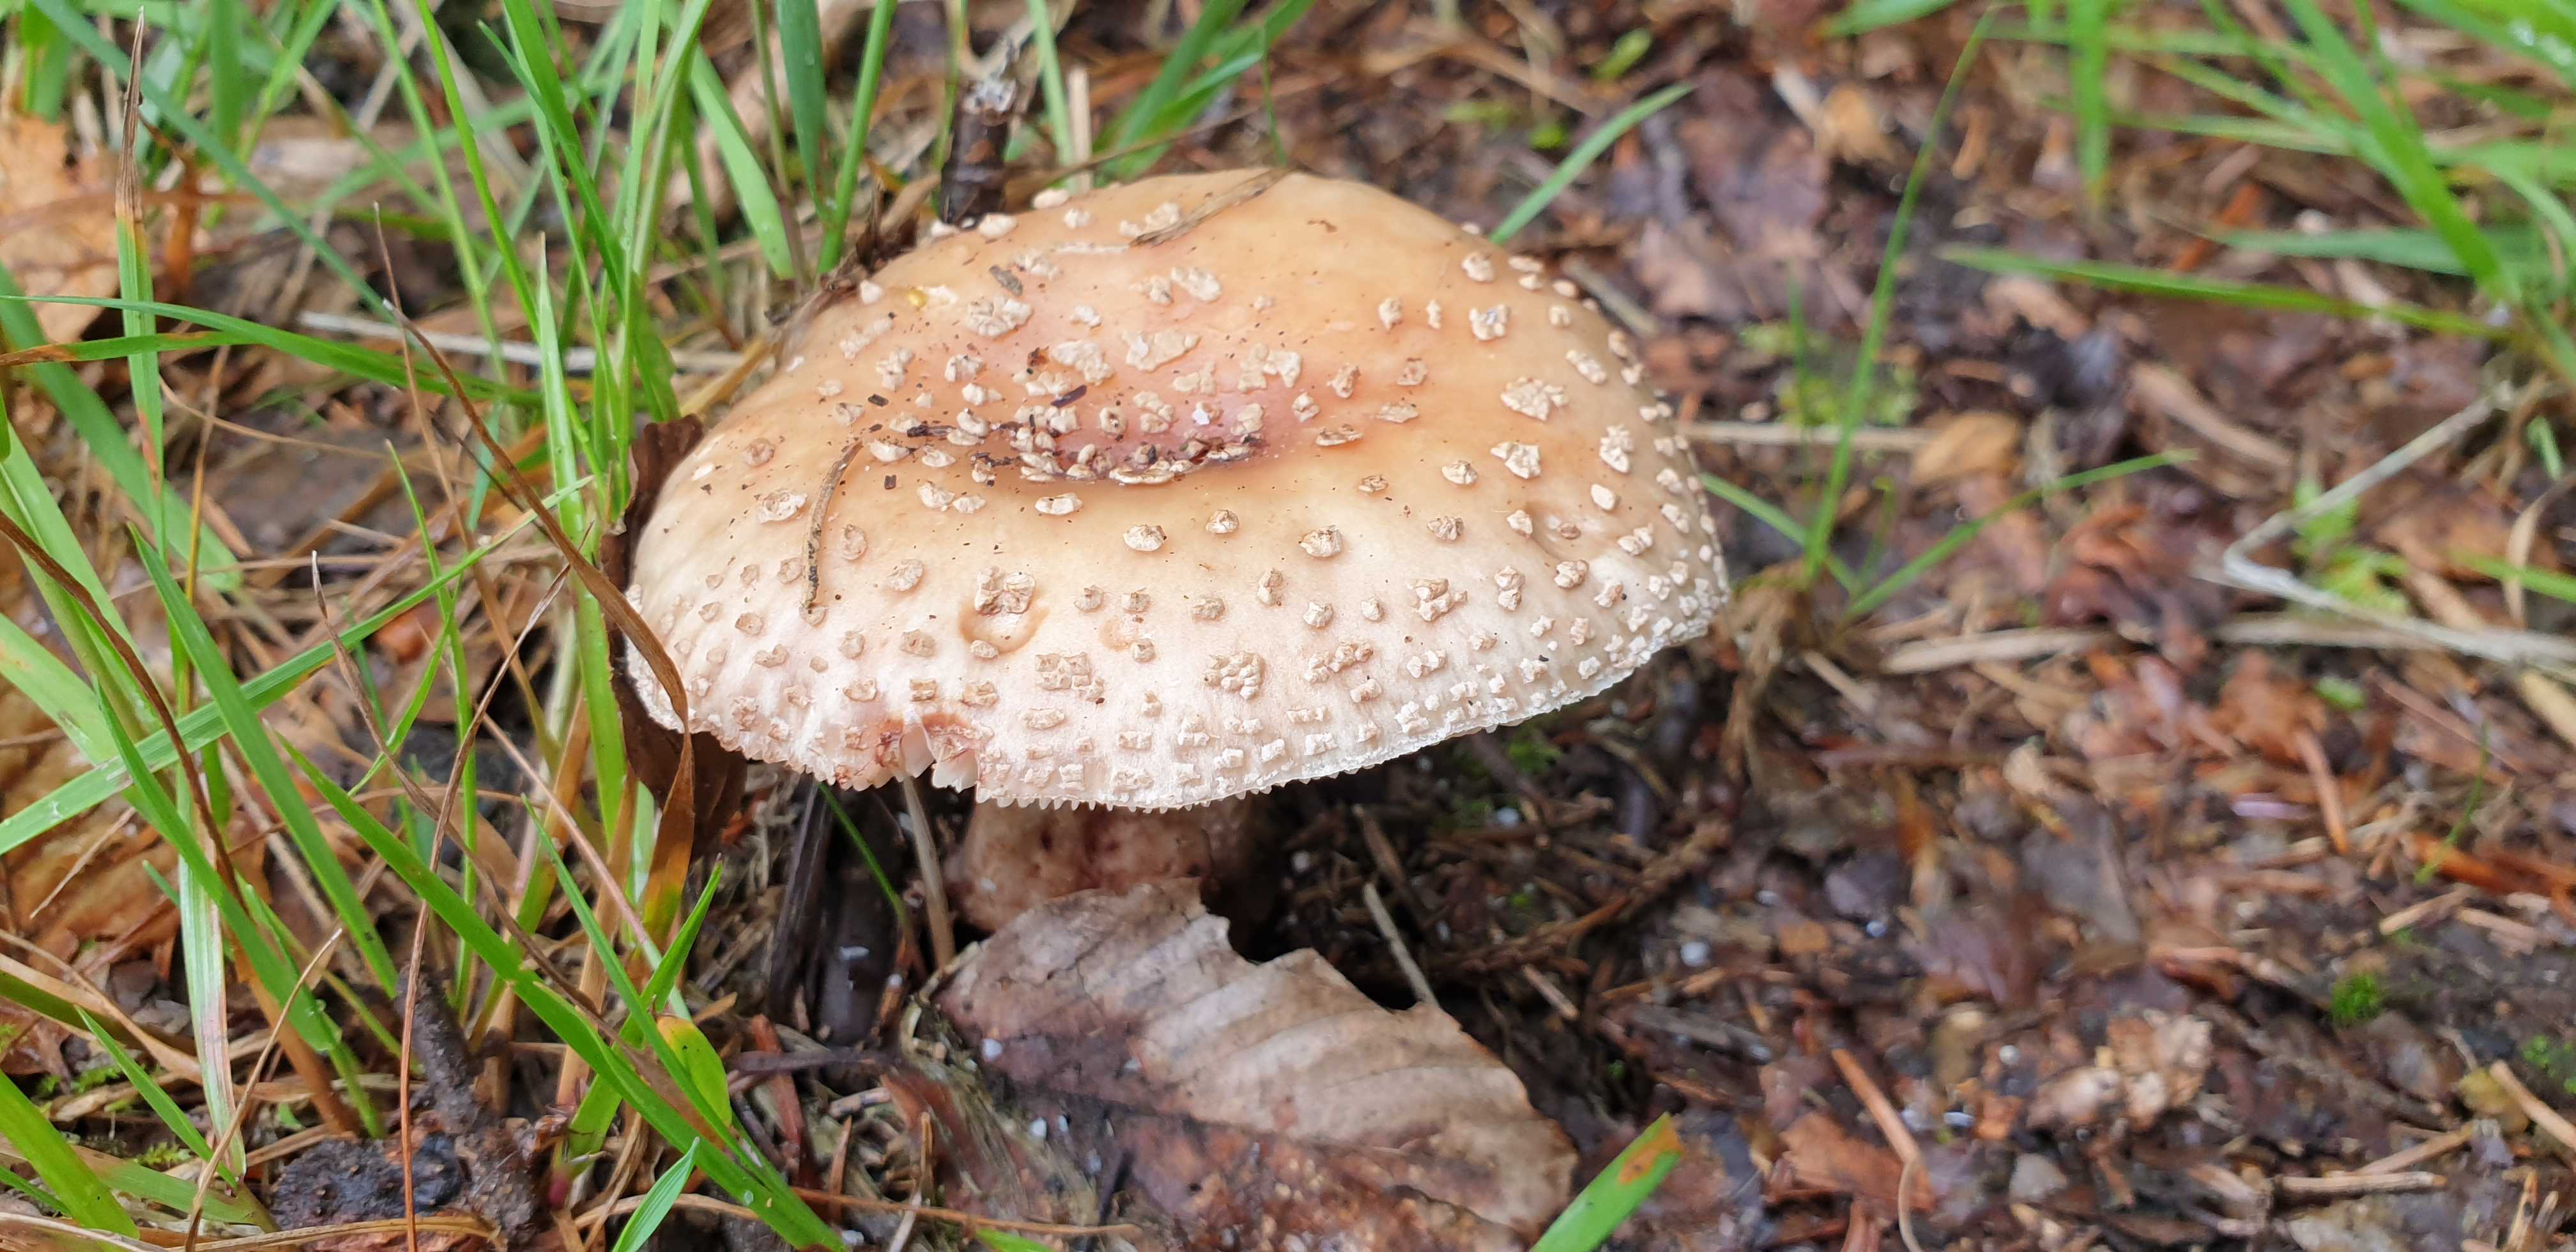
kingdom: Fungi
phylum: Basidiomycota
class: Agaricomycetes
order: Agaricales
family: Amanitaceae
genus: Amanita
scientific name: Amanita rubescens
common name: rødmende fluesvamp
